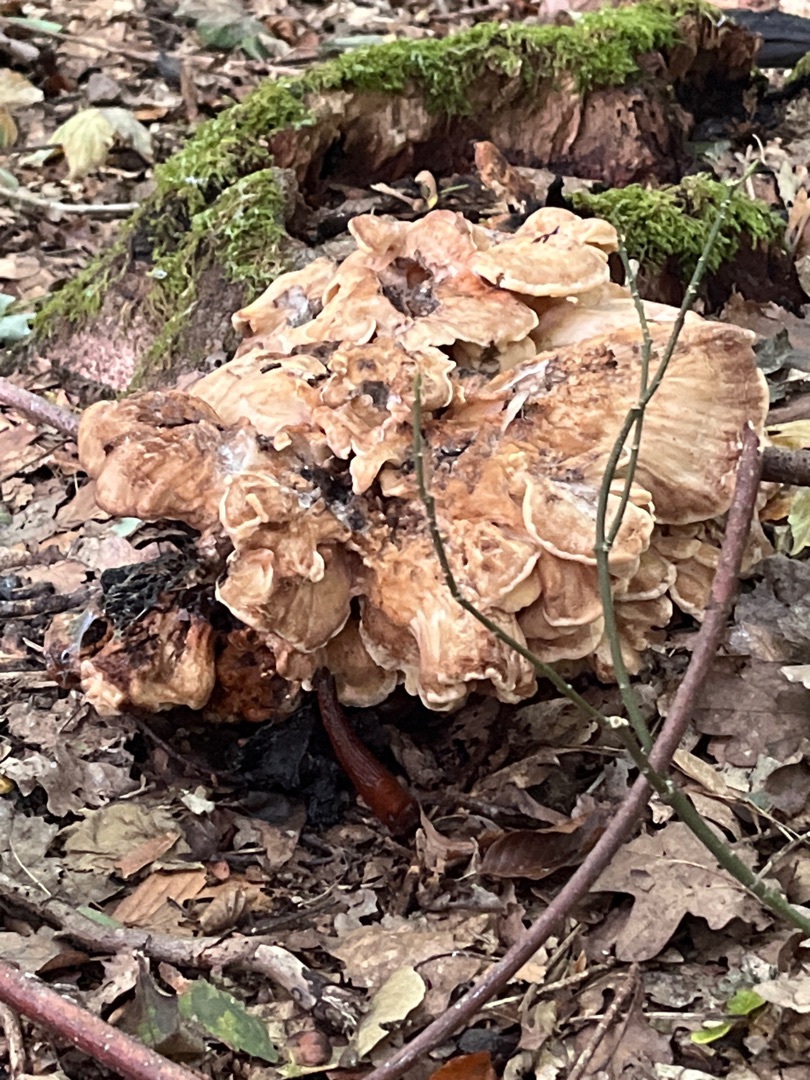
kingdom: Fungi
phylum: Basidiomycota
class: Agaricomycetes
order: Polyporales
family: Meripilaceae
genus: Meripilus
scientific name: Meripilus giganteus
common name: Kæmpeporesvamp
